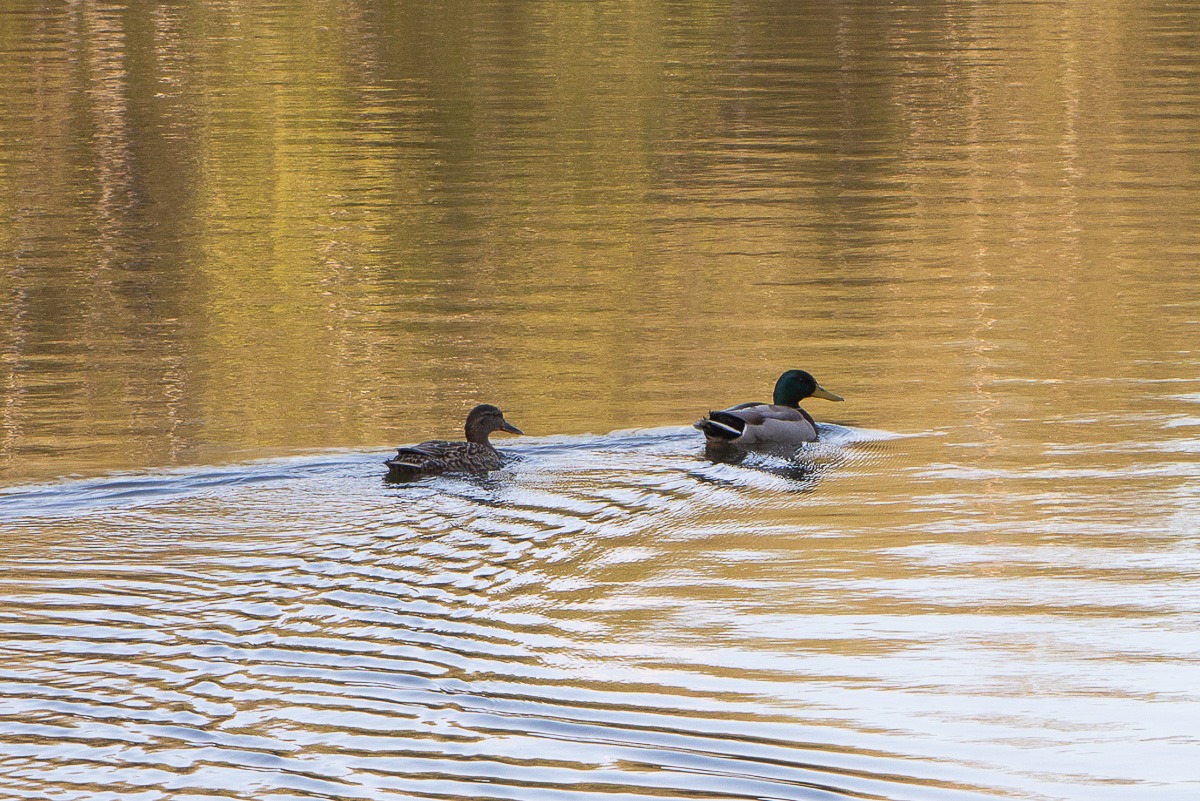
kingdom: Animalia
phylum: Chordata
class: Aves
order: Anseriformes
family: Anatidae
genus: Anas
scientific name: Anas platyrhynchos
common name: Gråand
